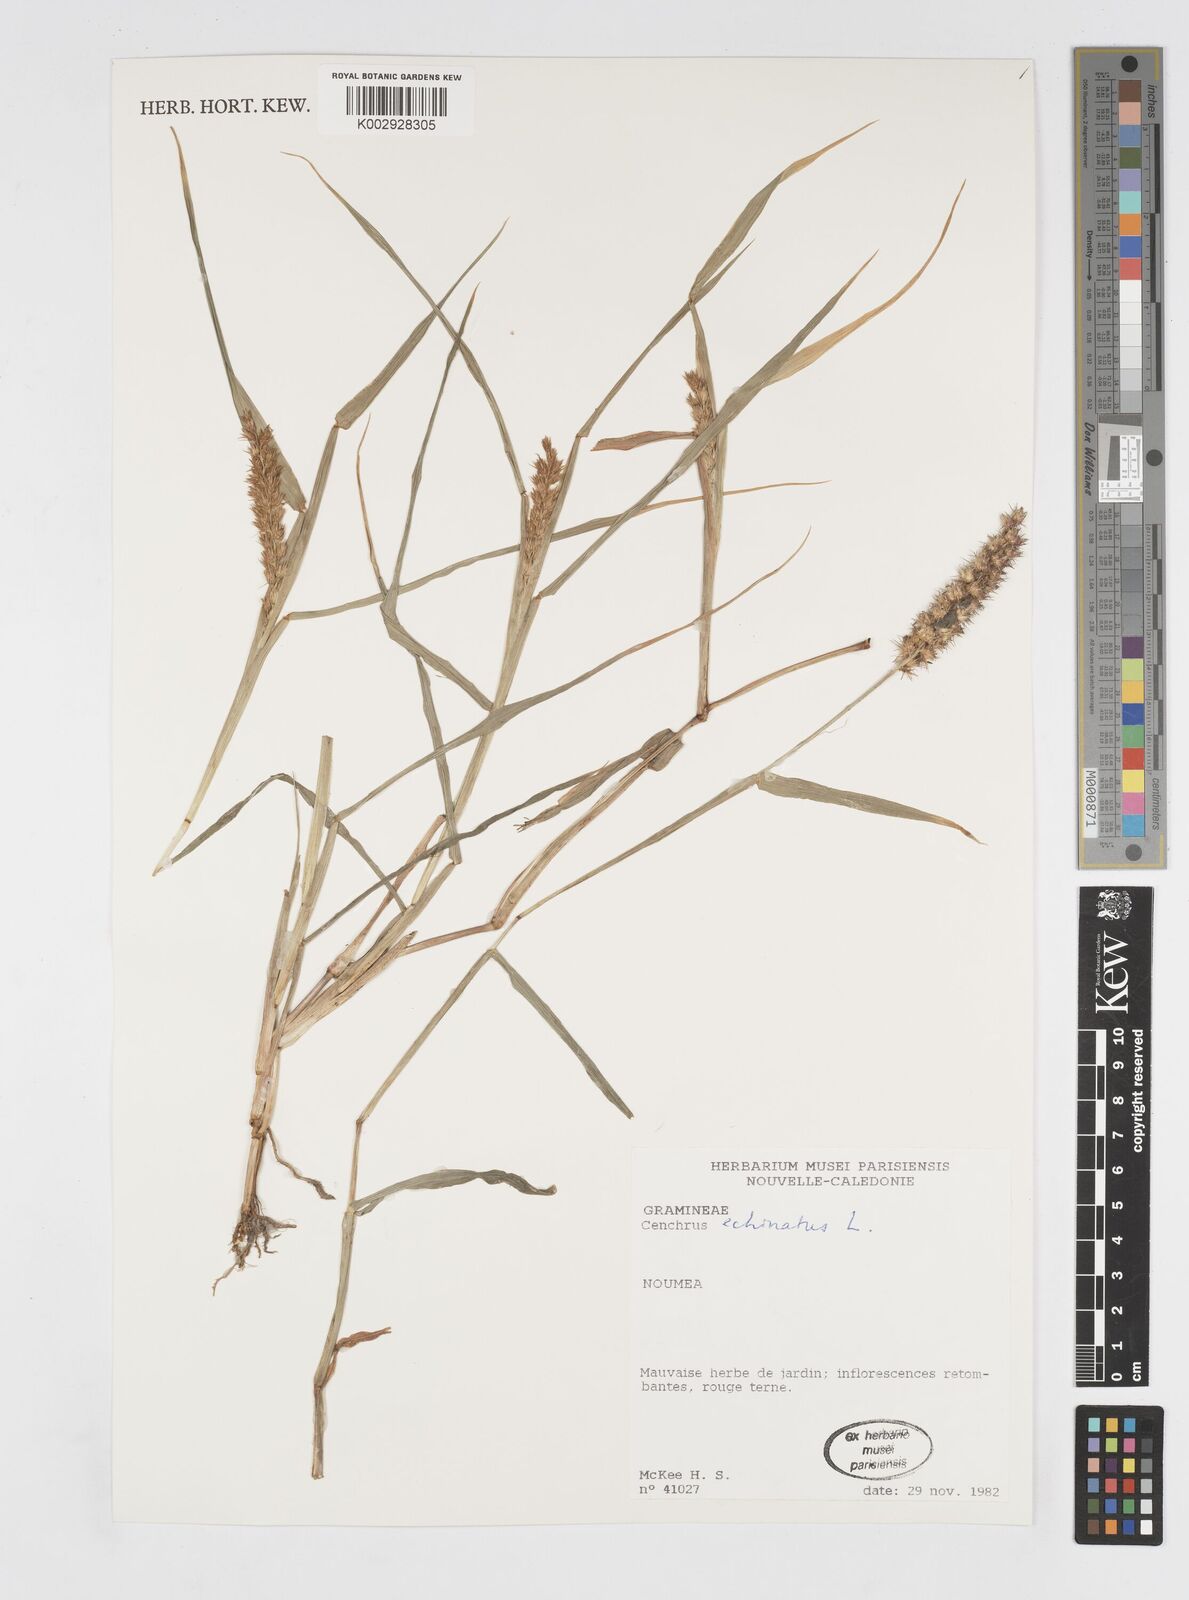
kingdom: Plantae
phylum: Tracheophyta
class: Liliopsida
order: Poales
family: Poaceae
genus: Cenchrus
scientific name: Cenchrus echinatus
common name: Southern sandbur
